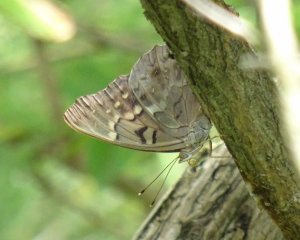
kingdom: Animalia
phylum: Arthropoda
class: Insecta
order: Lepidoptera
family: Nymphalidae
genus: Asterocampa
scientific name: Asterocampa clyton
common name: Tawny Emperor
